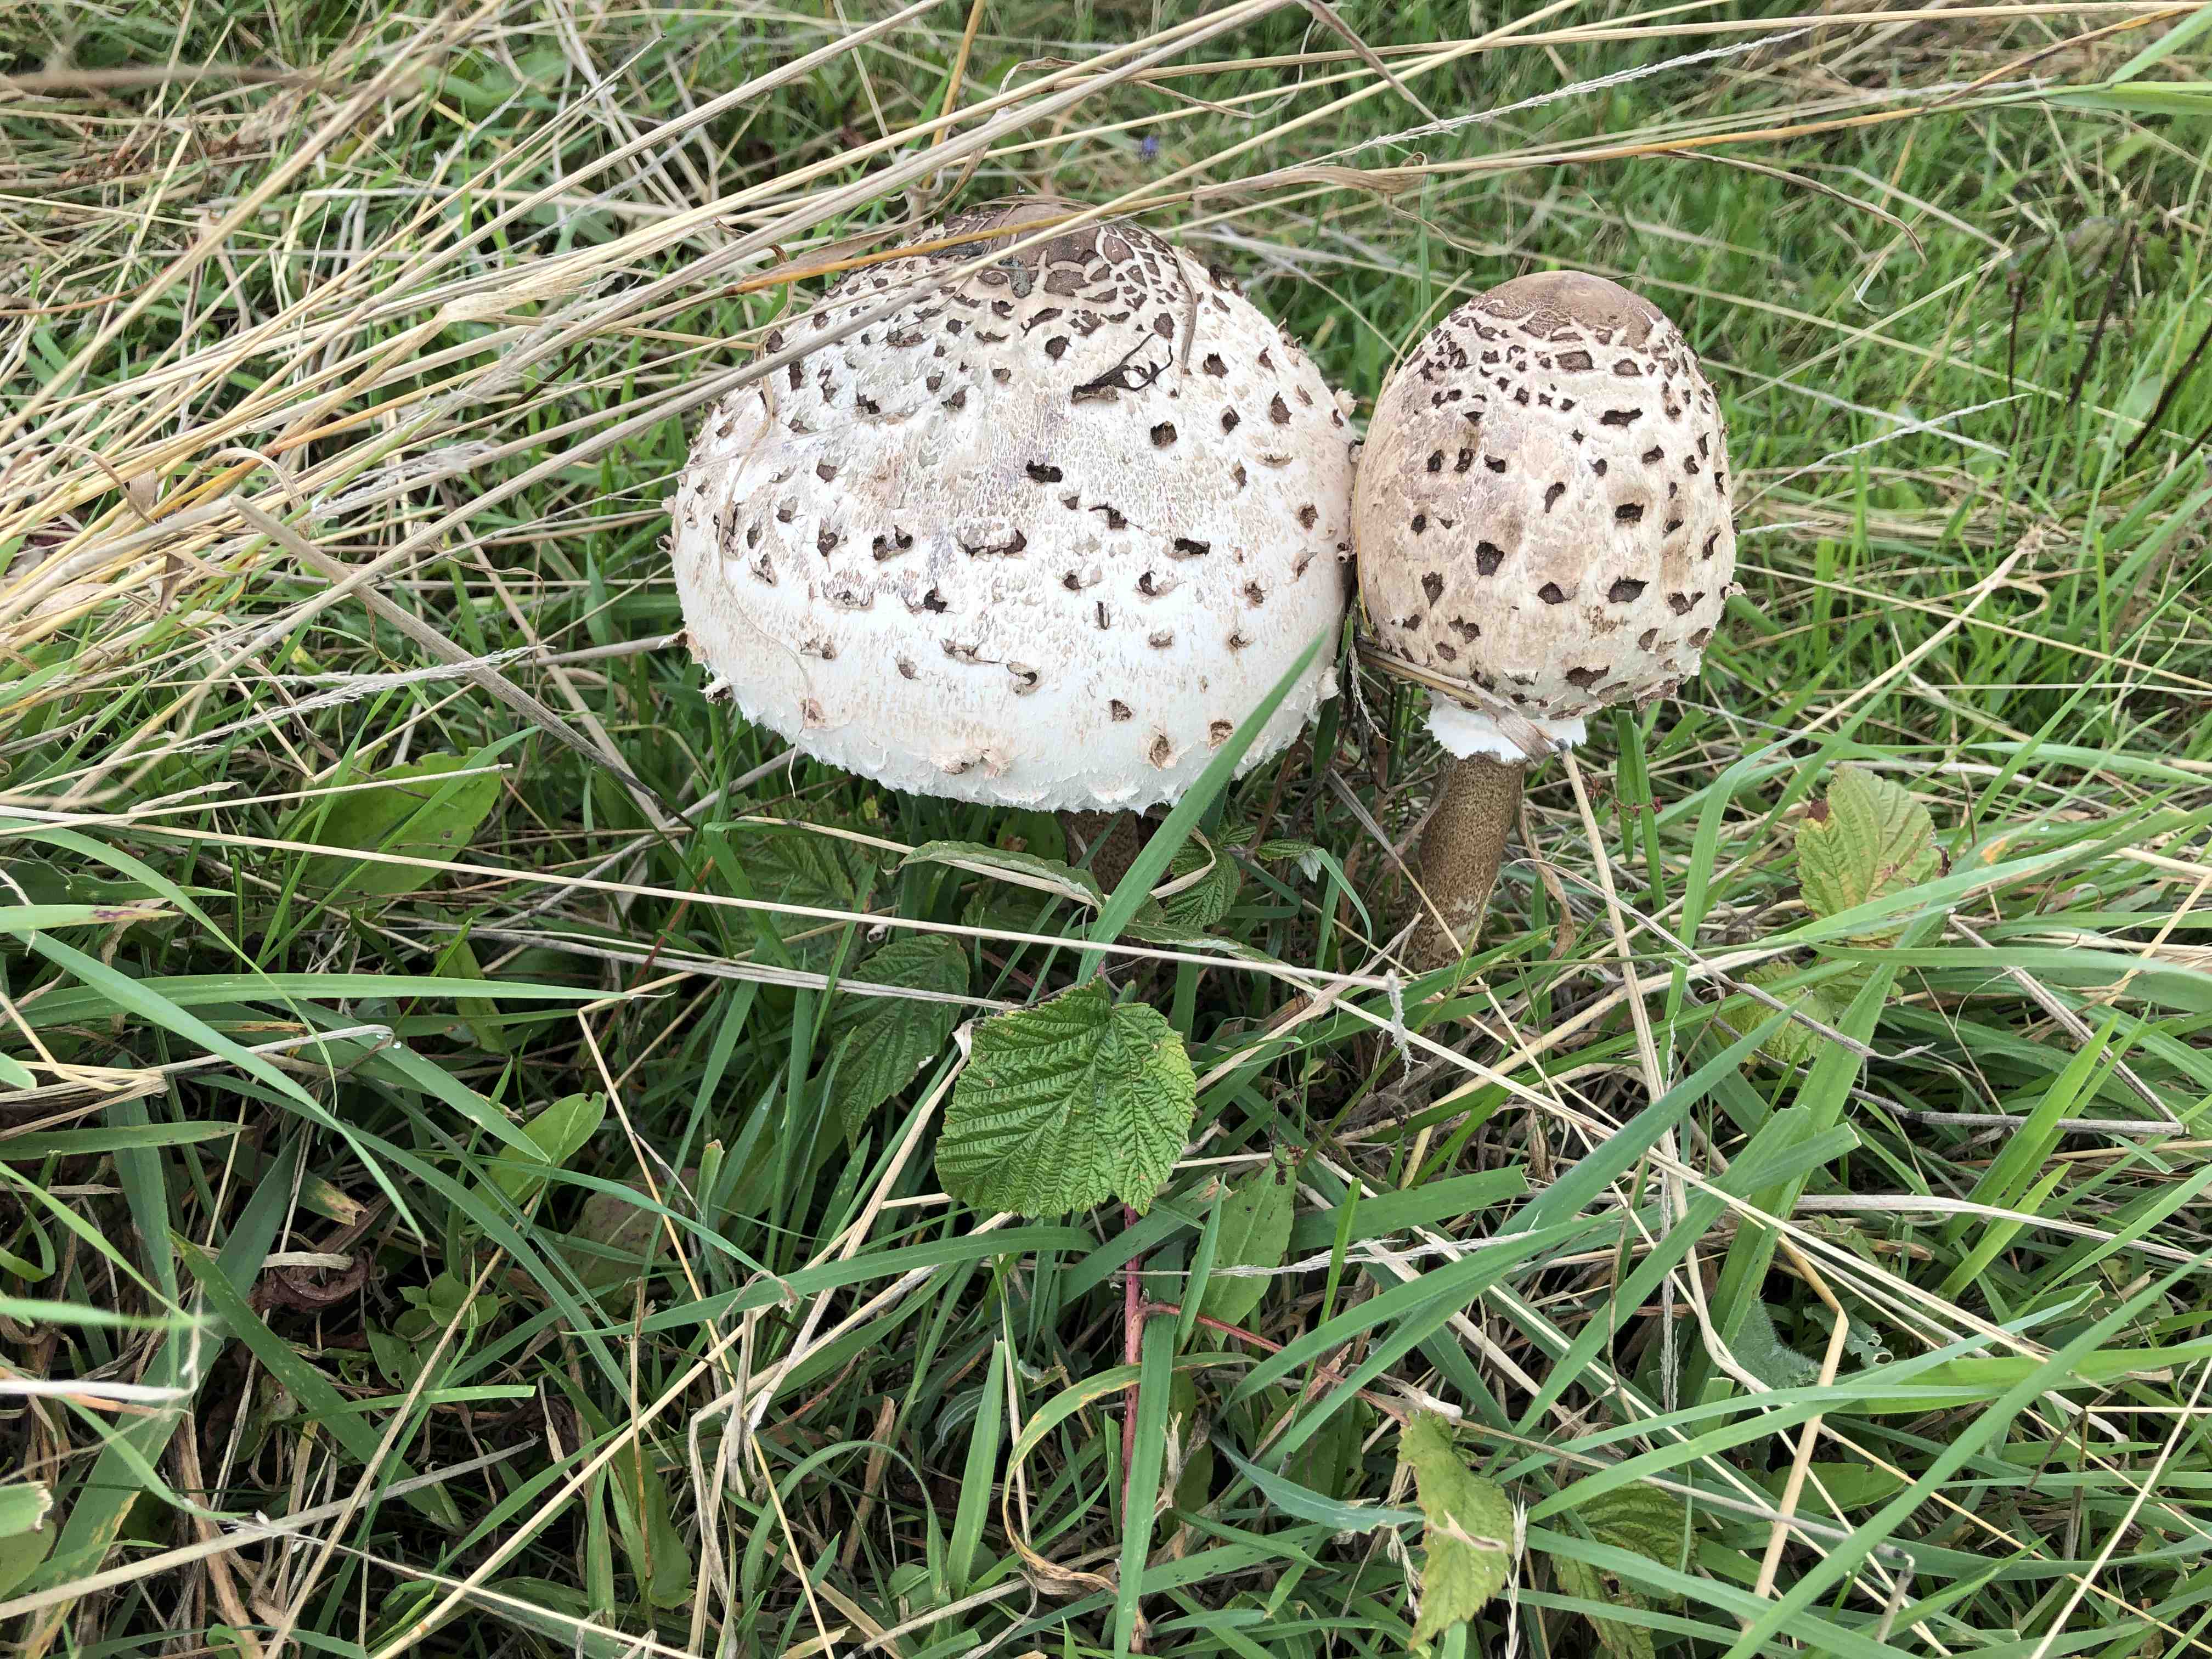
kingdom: Fungi
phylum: Basidiomycota
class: Agaricomycetes
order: Agaricales
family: Agaricaceae
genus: Macrolepiota
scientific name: Macrolepiota procera
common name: stor kæmpeparasolhat
